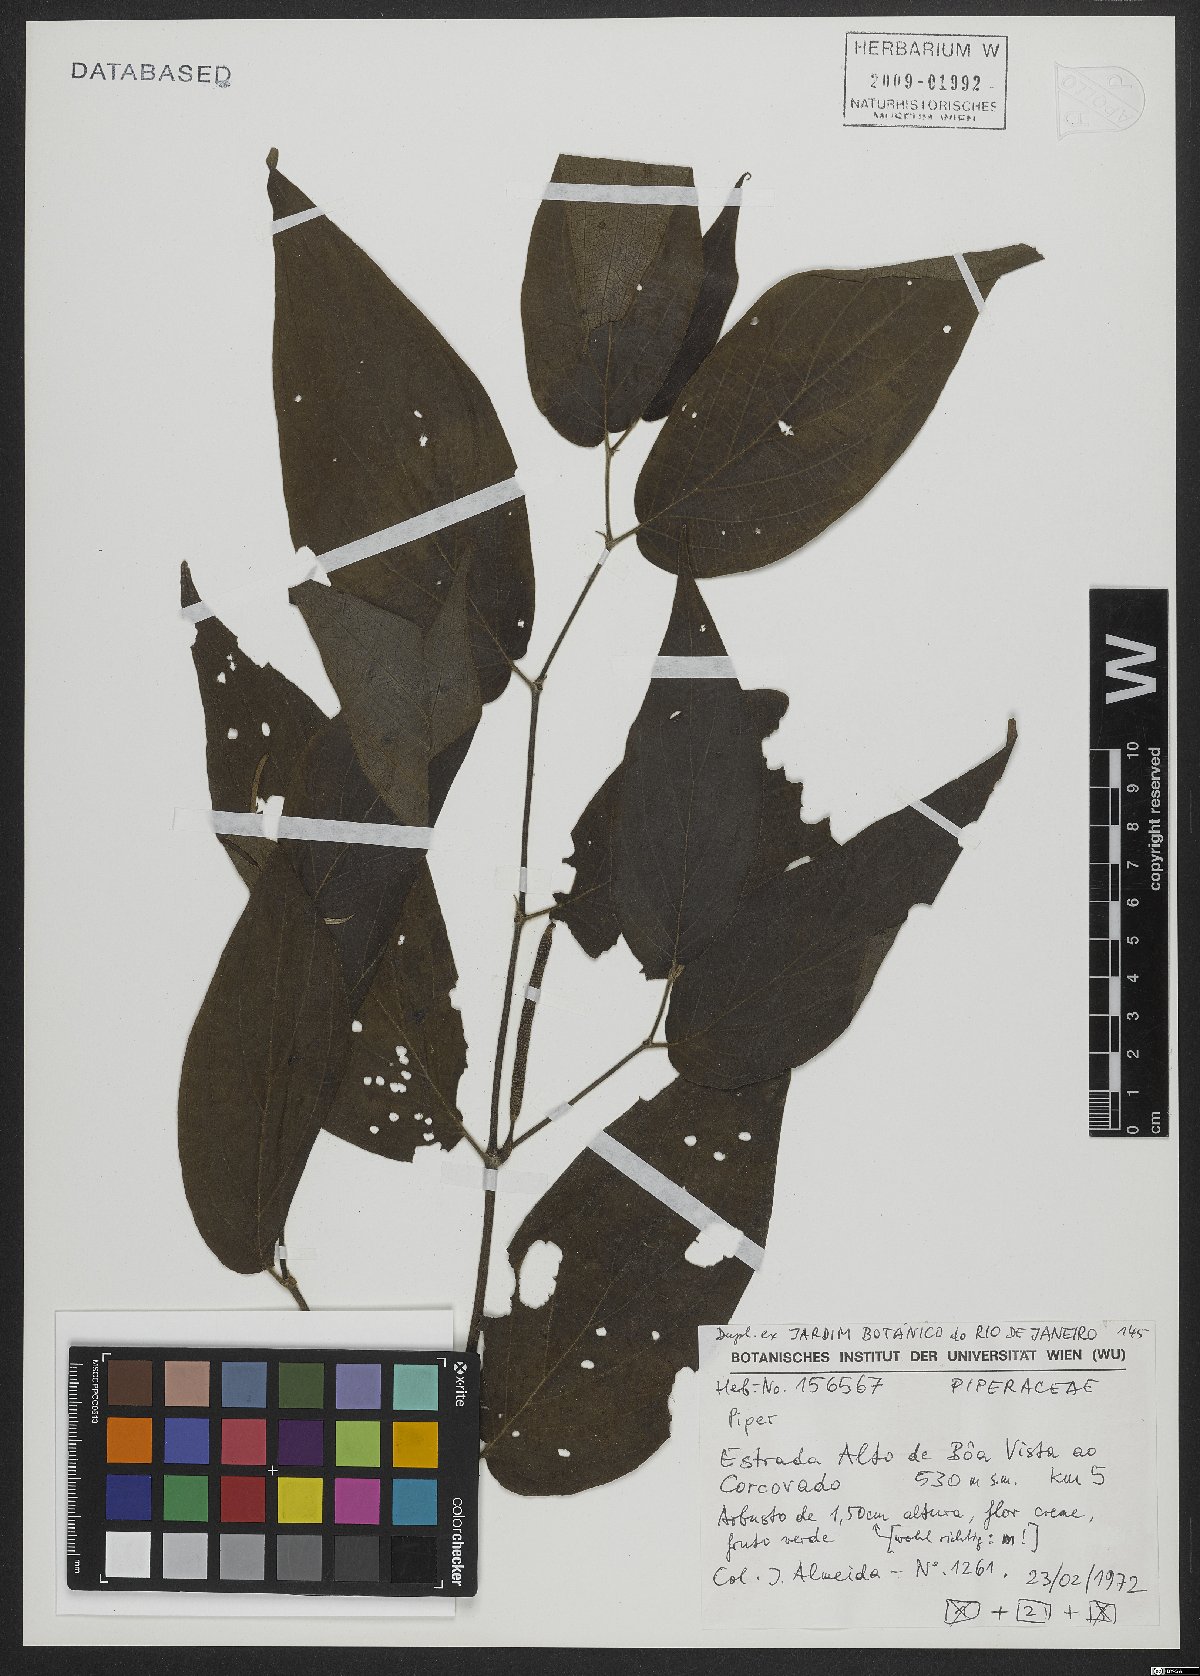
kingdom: Plantae
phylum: Tracheophyta
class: Magnoliopsida
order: Piperales
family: Piperaceae
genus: Piper
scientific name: Piper
